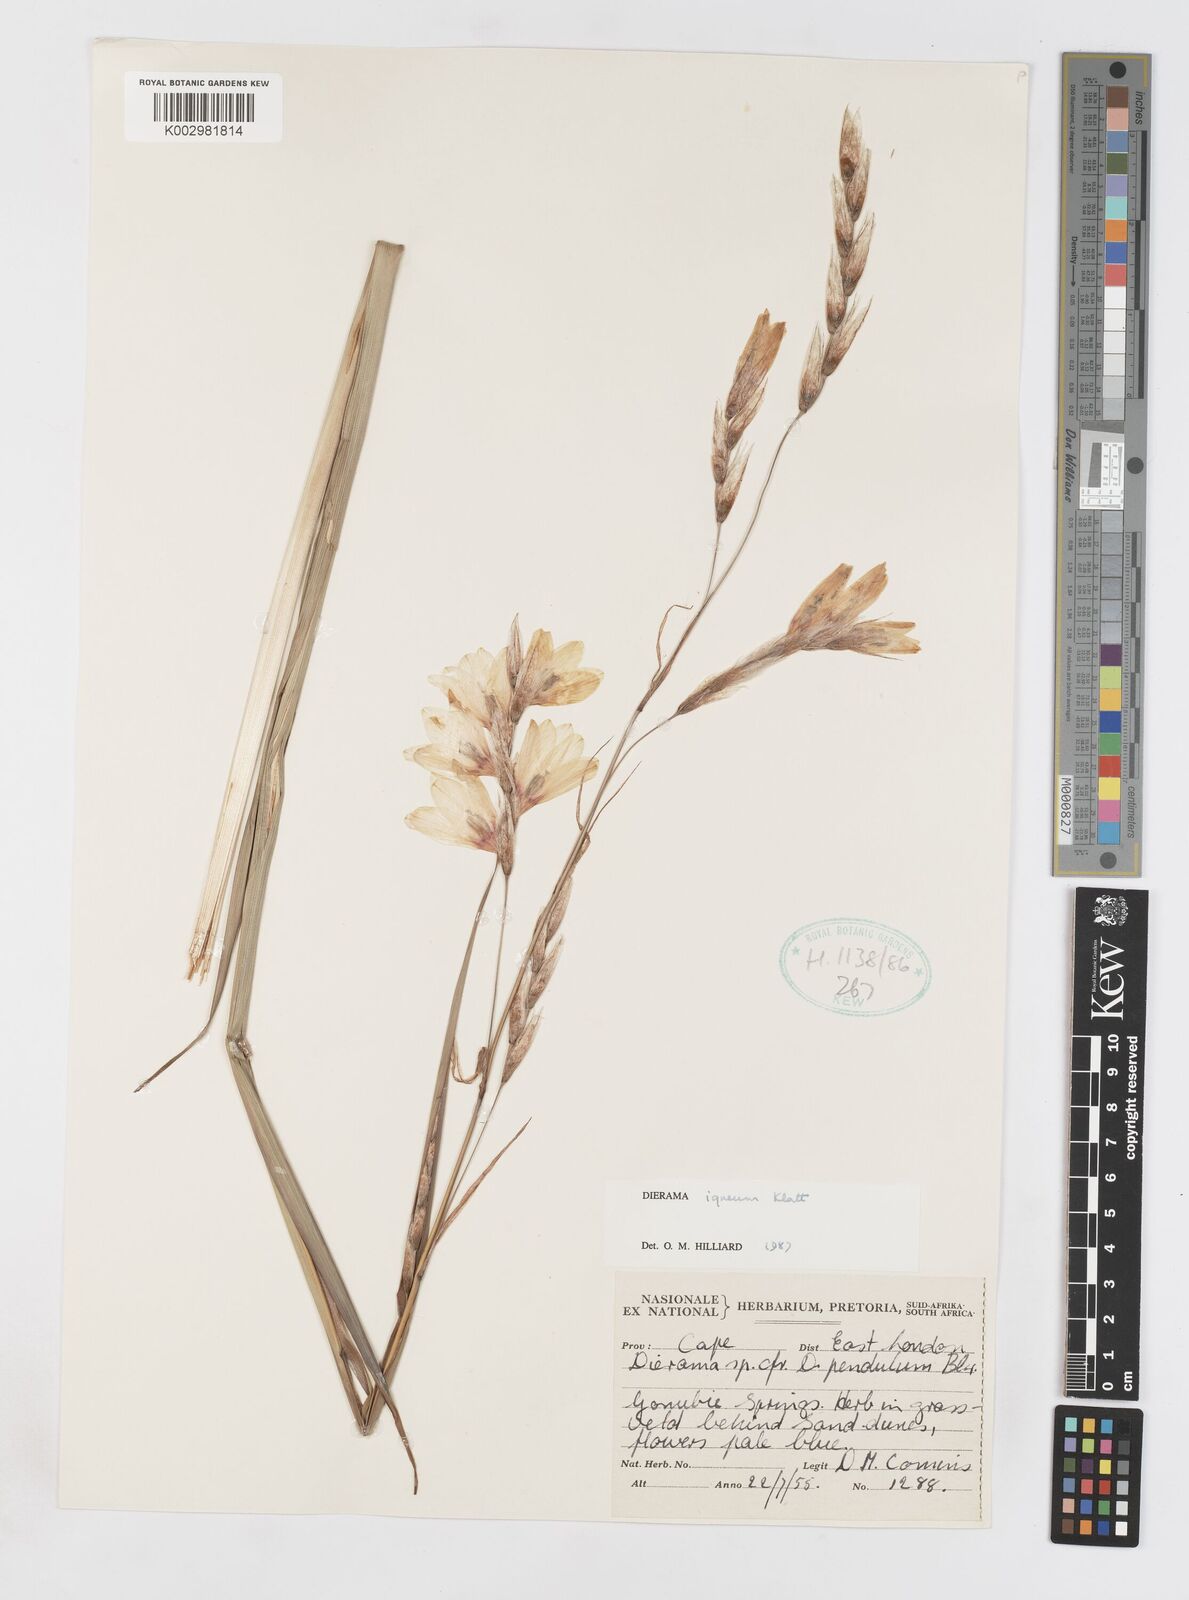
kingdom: Plantae
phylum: Tracheophyta
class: Liliopsida
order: Asparagales
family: Iridaceae
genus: Dierama
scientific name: Dierama igneum
